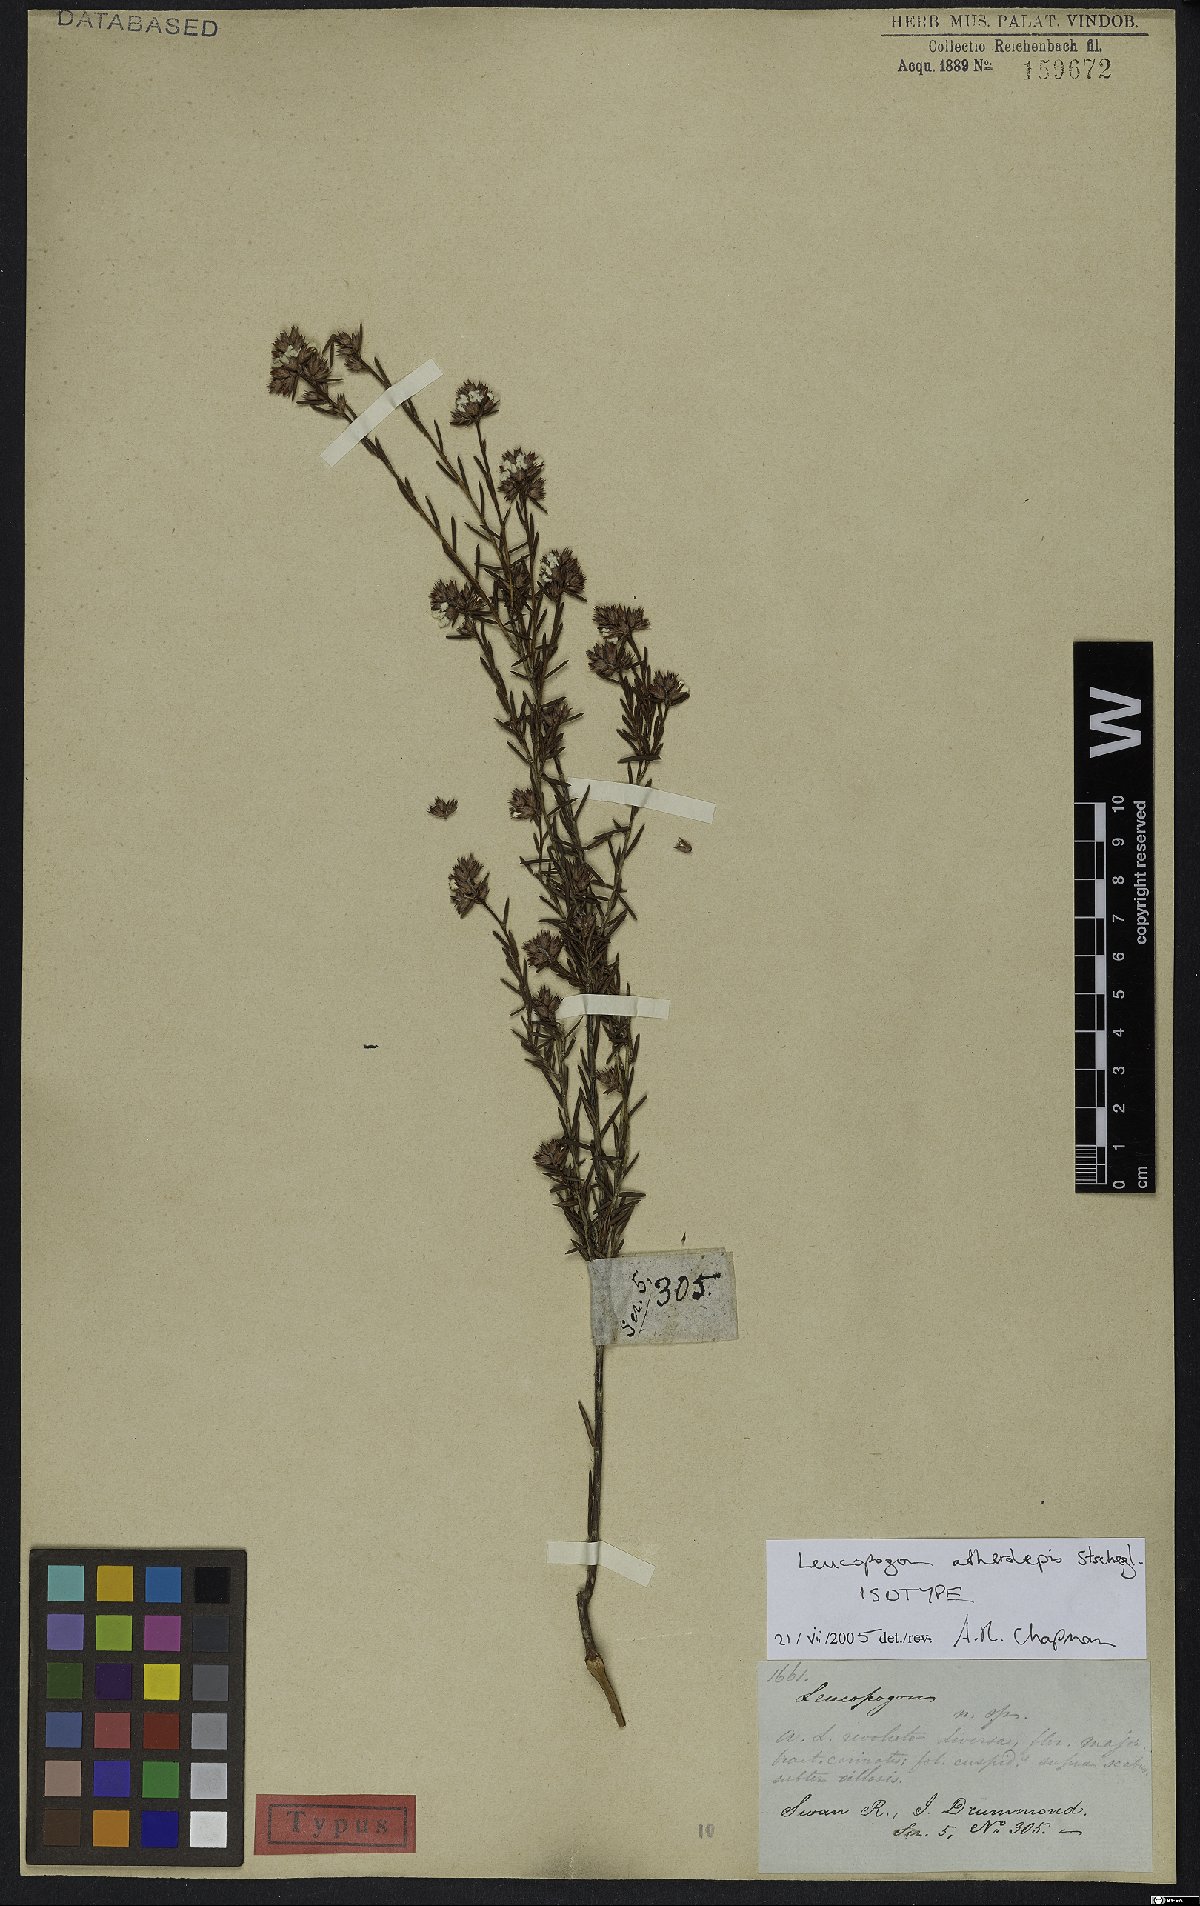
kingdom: Plantae
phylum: Tracheophyta
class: Magnoliopsida
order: Ericales
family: Ericaceae
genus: Leucopogon
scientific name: Leucopogon atherolepis
